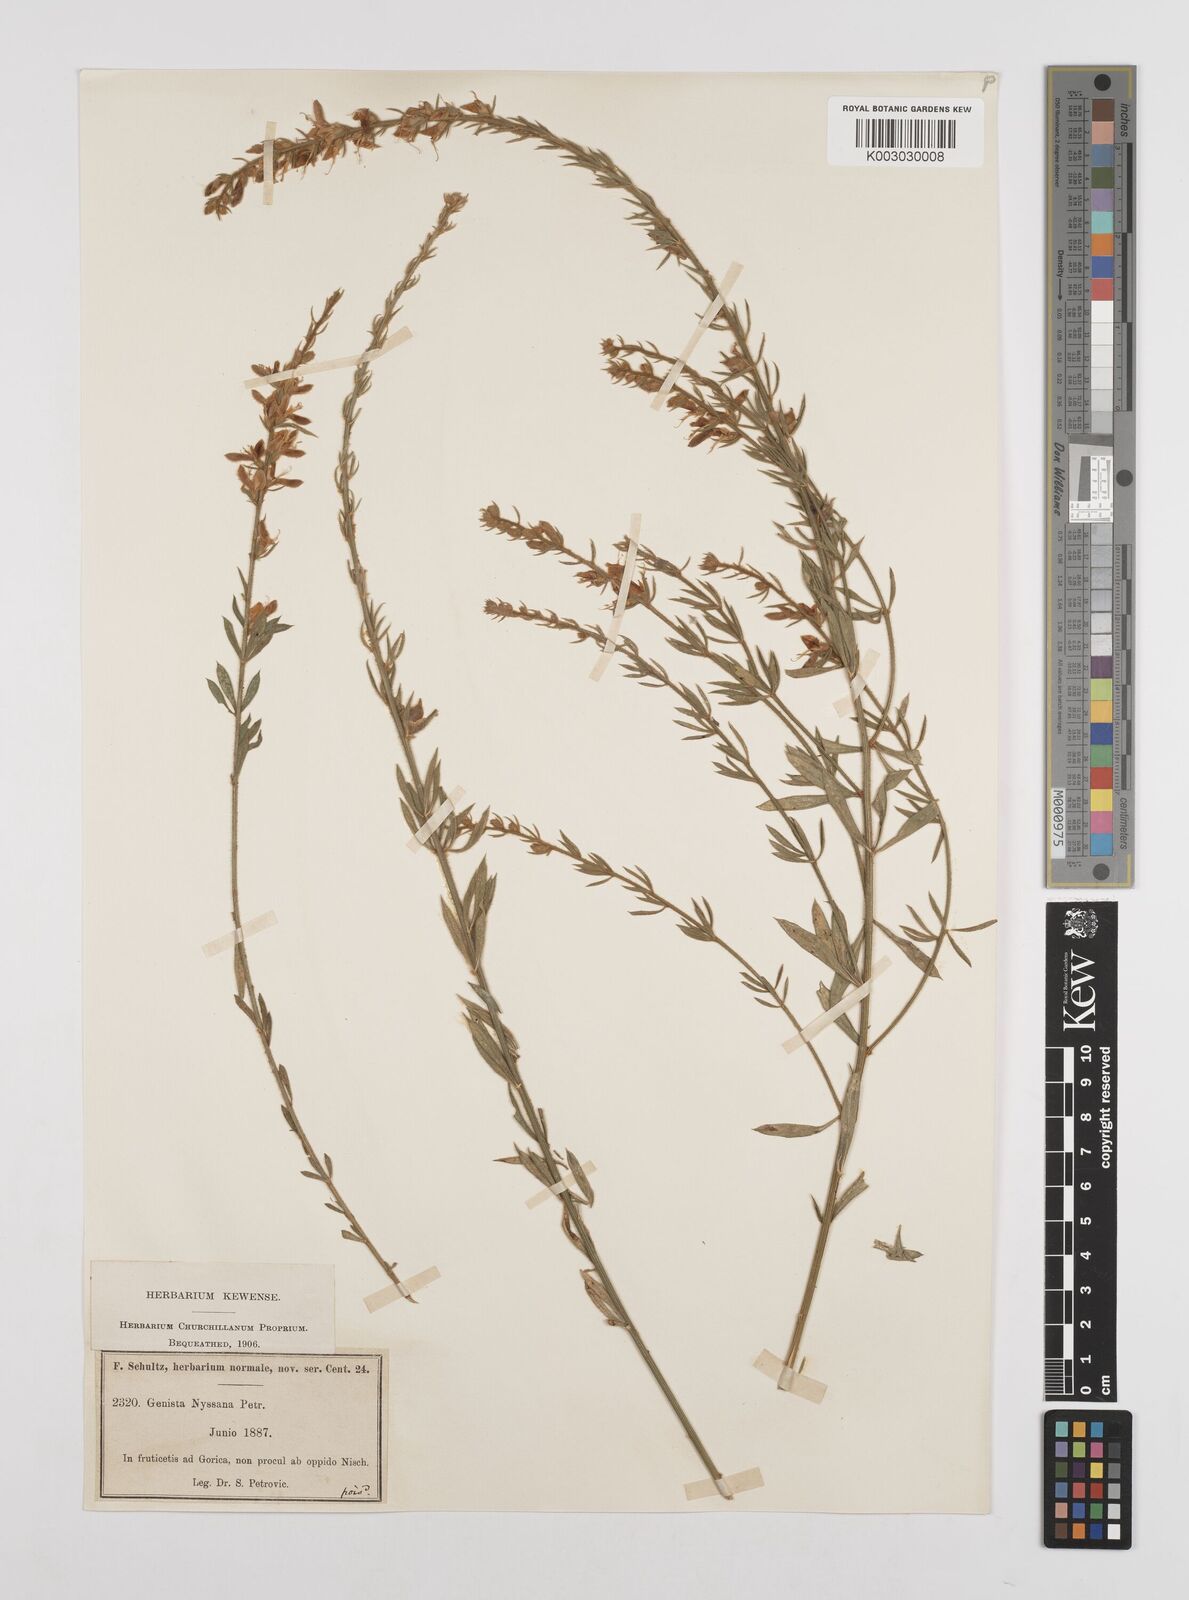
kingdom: Plantae
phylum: Tracheophyta
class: Magnoliopsida
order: Fabales
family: Fabaceae
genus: Genista
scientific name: Genista nissana
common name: Macedonian broom
